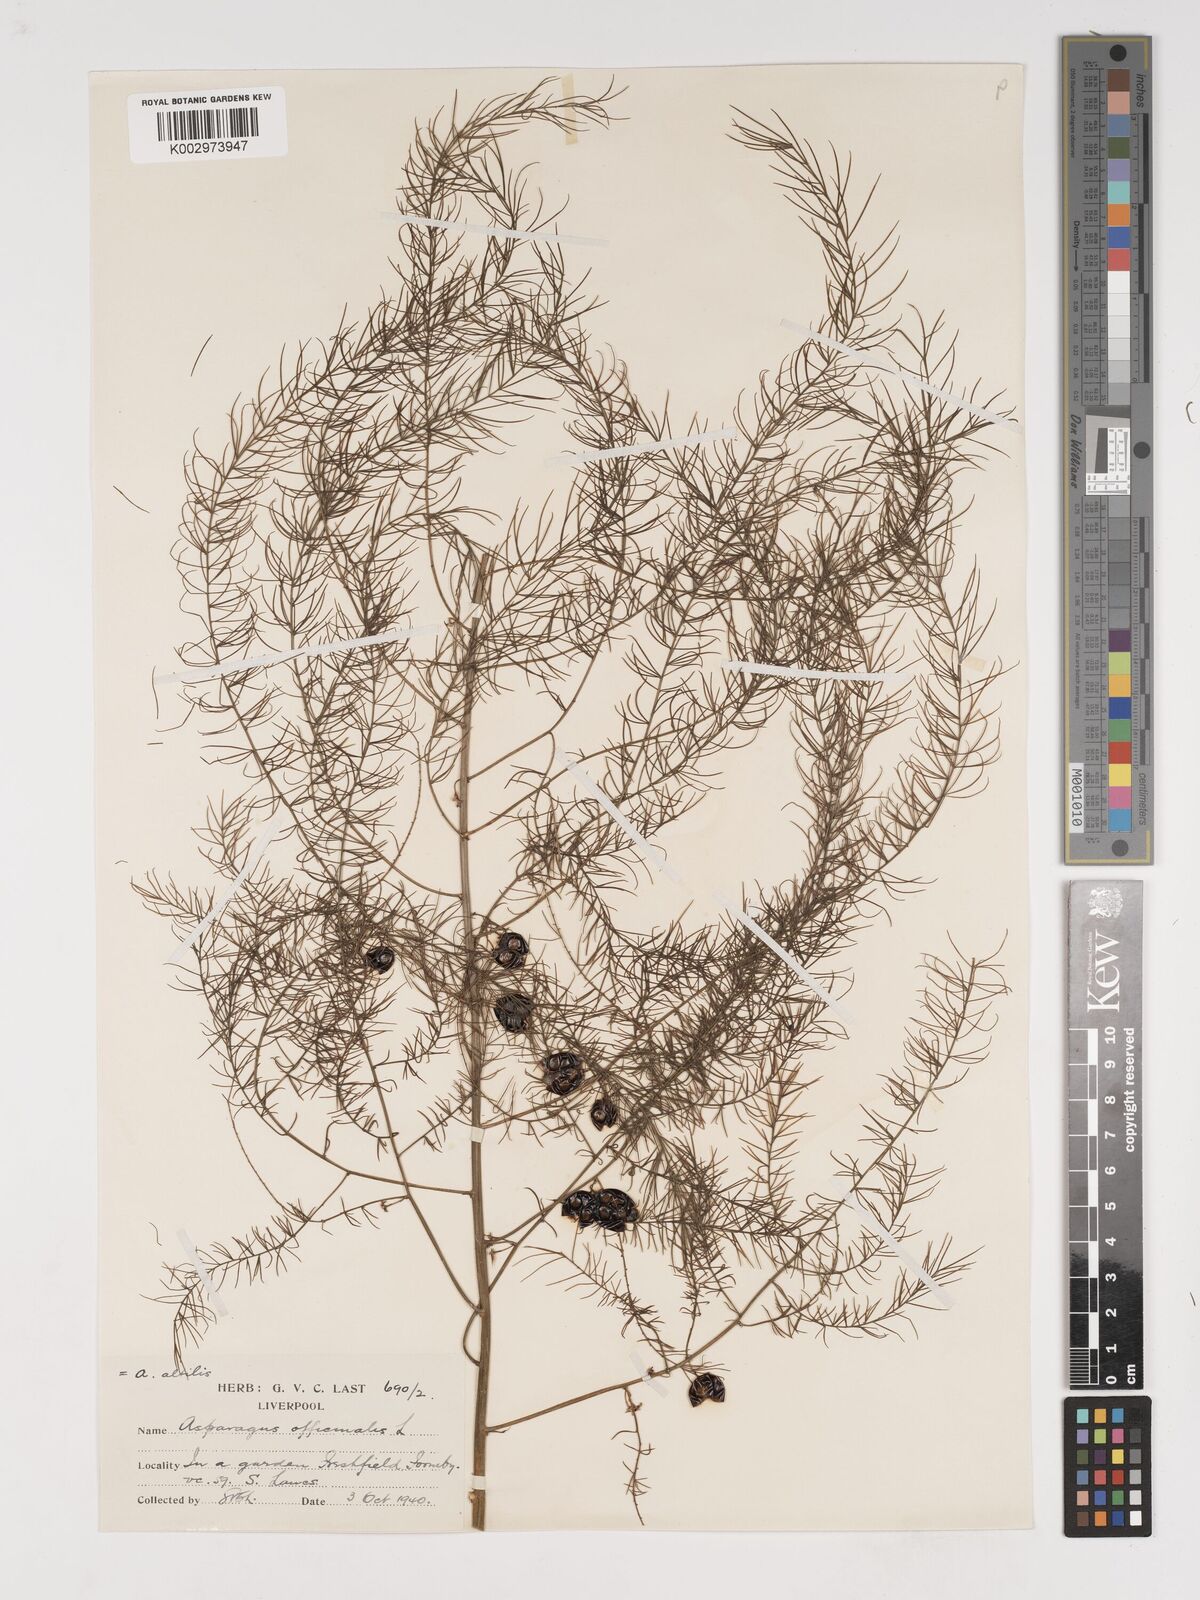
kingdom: Plantae
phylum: Tracheophyta
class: Liliopsida
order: Asparagales
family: Asparagaceae
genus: Asparagus
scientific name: Asparagus officinalis
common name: Garden asparagus
